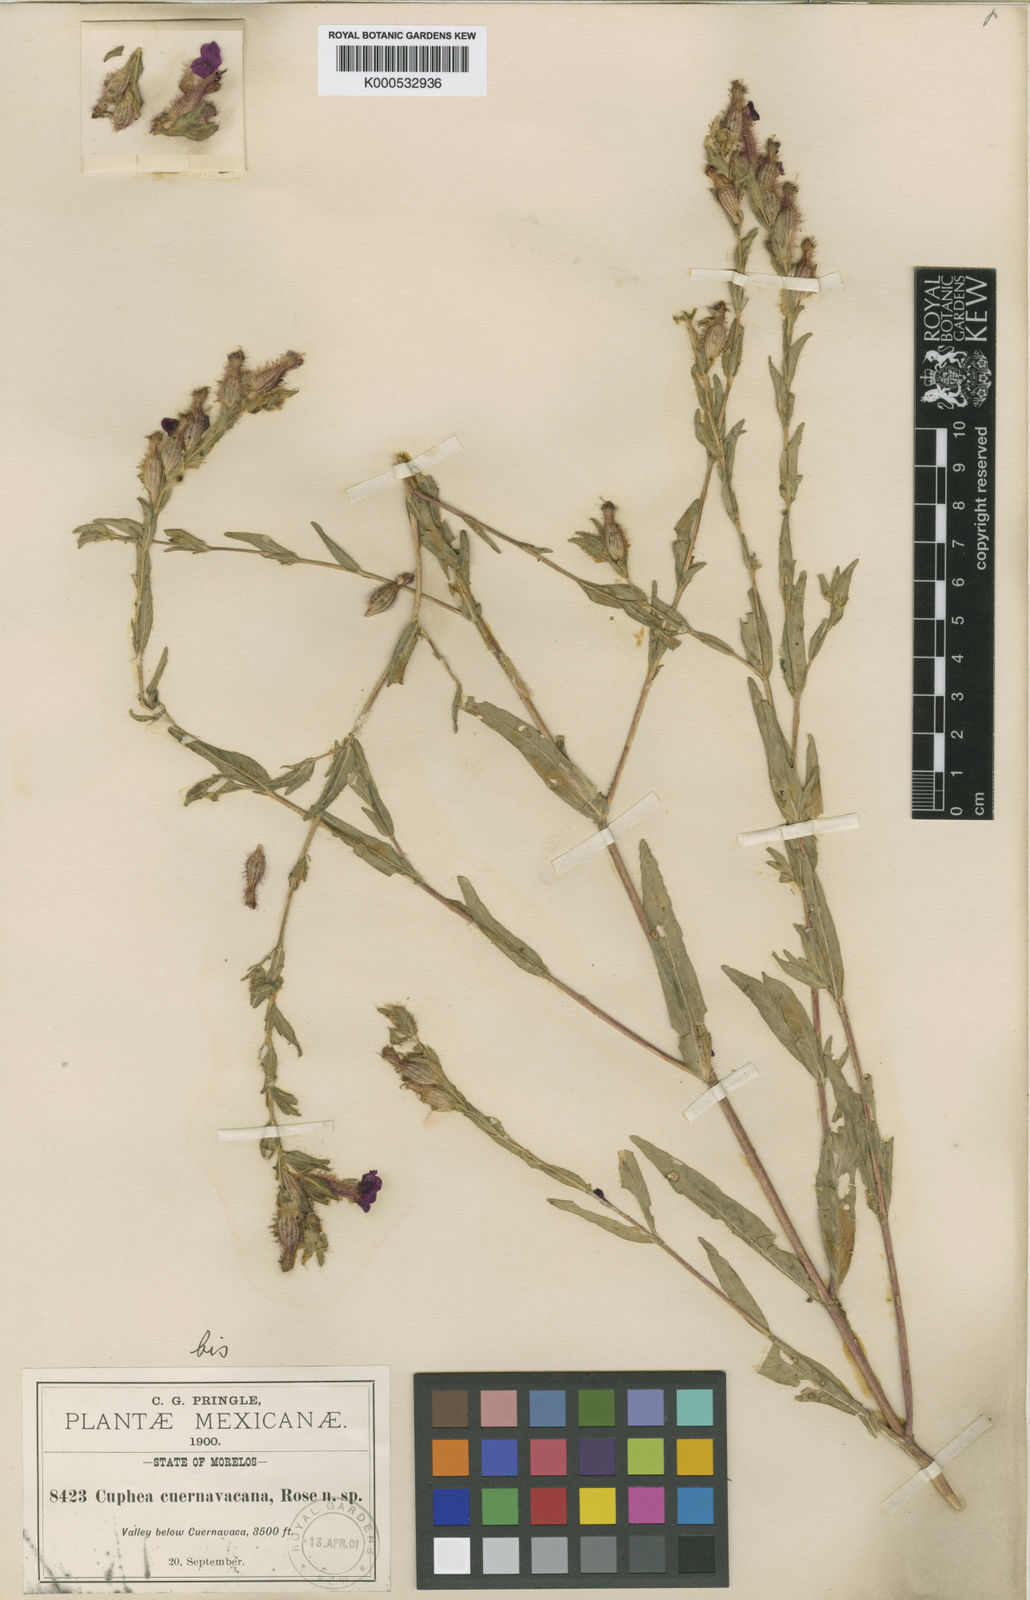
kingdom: Plantae
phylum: Tracheophyta
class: Magnoliopsida
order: Myrtales
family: Lythraceae
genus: Cuphea
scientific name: Cuphea
